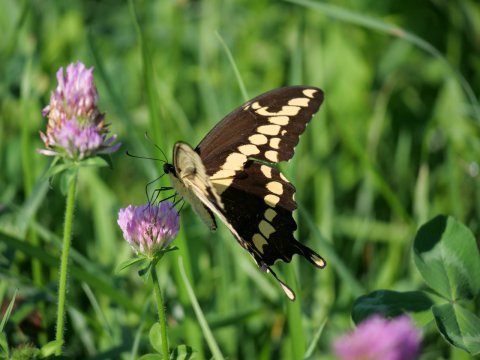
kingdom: Animalia
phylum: Arthropoda
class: Insecta
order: Lepidoptera
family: Papilionidae
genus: Papilio
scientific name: Papilio cresphontes
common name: Eastern Giant Swallowtail
